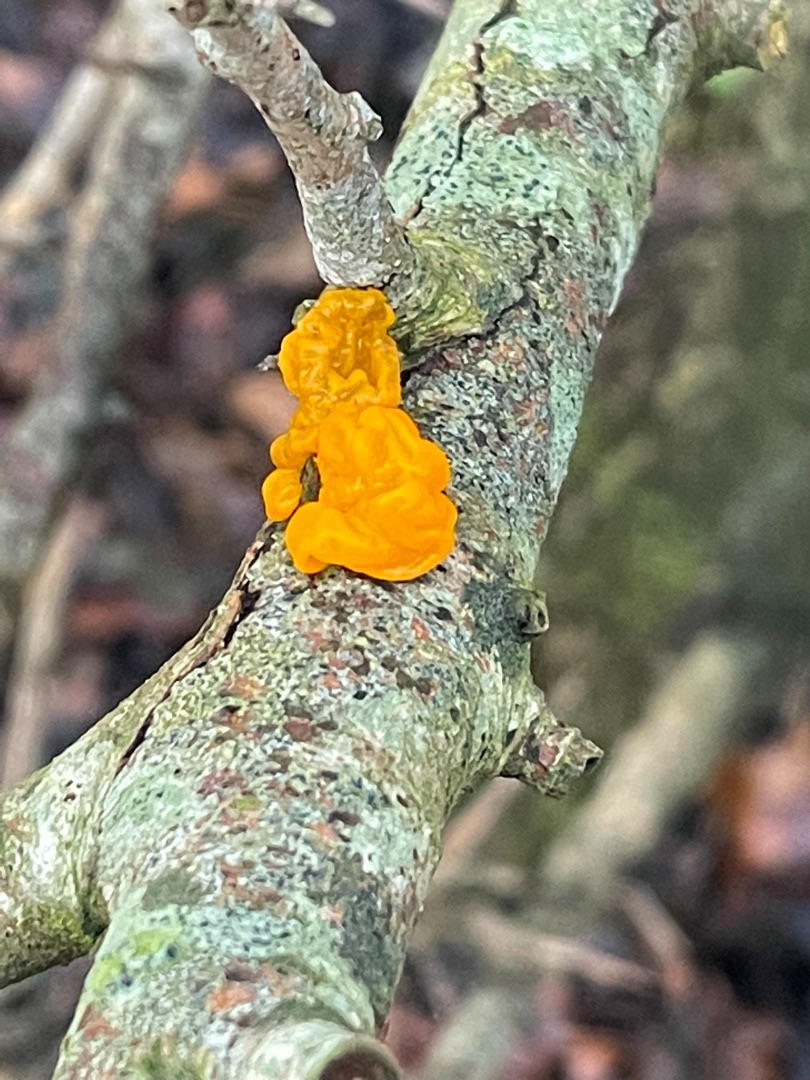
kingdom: Fungi
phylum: Basidiomycota
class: Tremellomycetes
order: Tremellales
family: Tremellaceae
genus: Tremella
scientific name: Tremella mesenterica
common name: Gul bævresvamp
